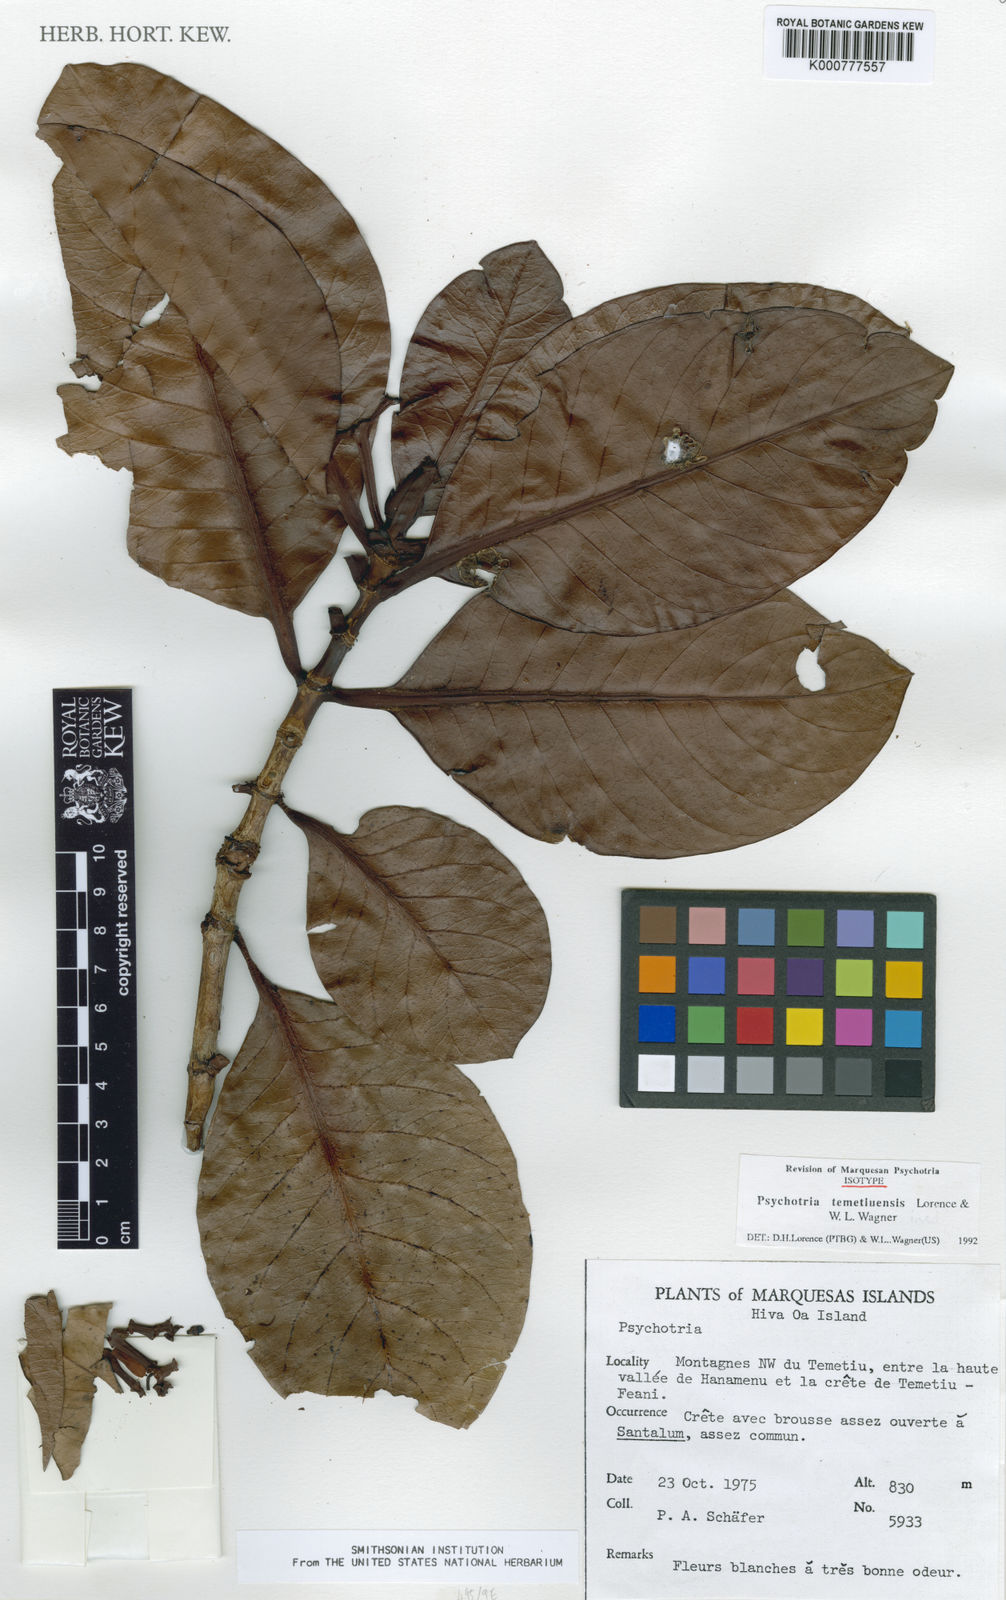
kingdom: Plantae
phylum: Tracheophyta
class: Magnoliopsida
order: Gentianales
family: Rubiaceae
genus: Psychotria
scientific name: Psychotria temetiuensis
